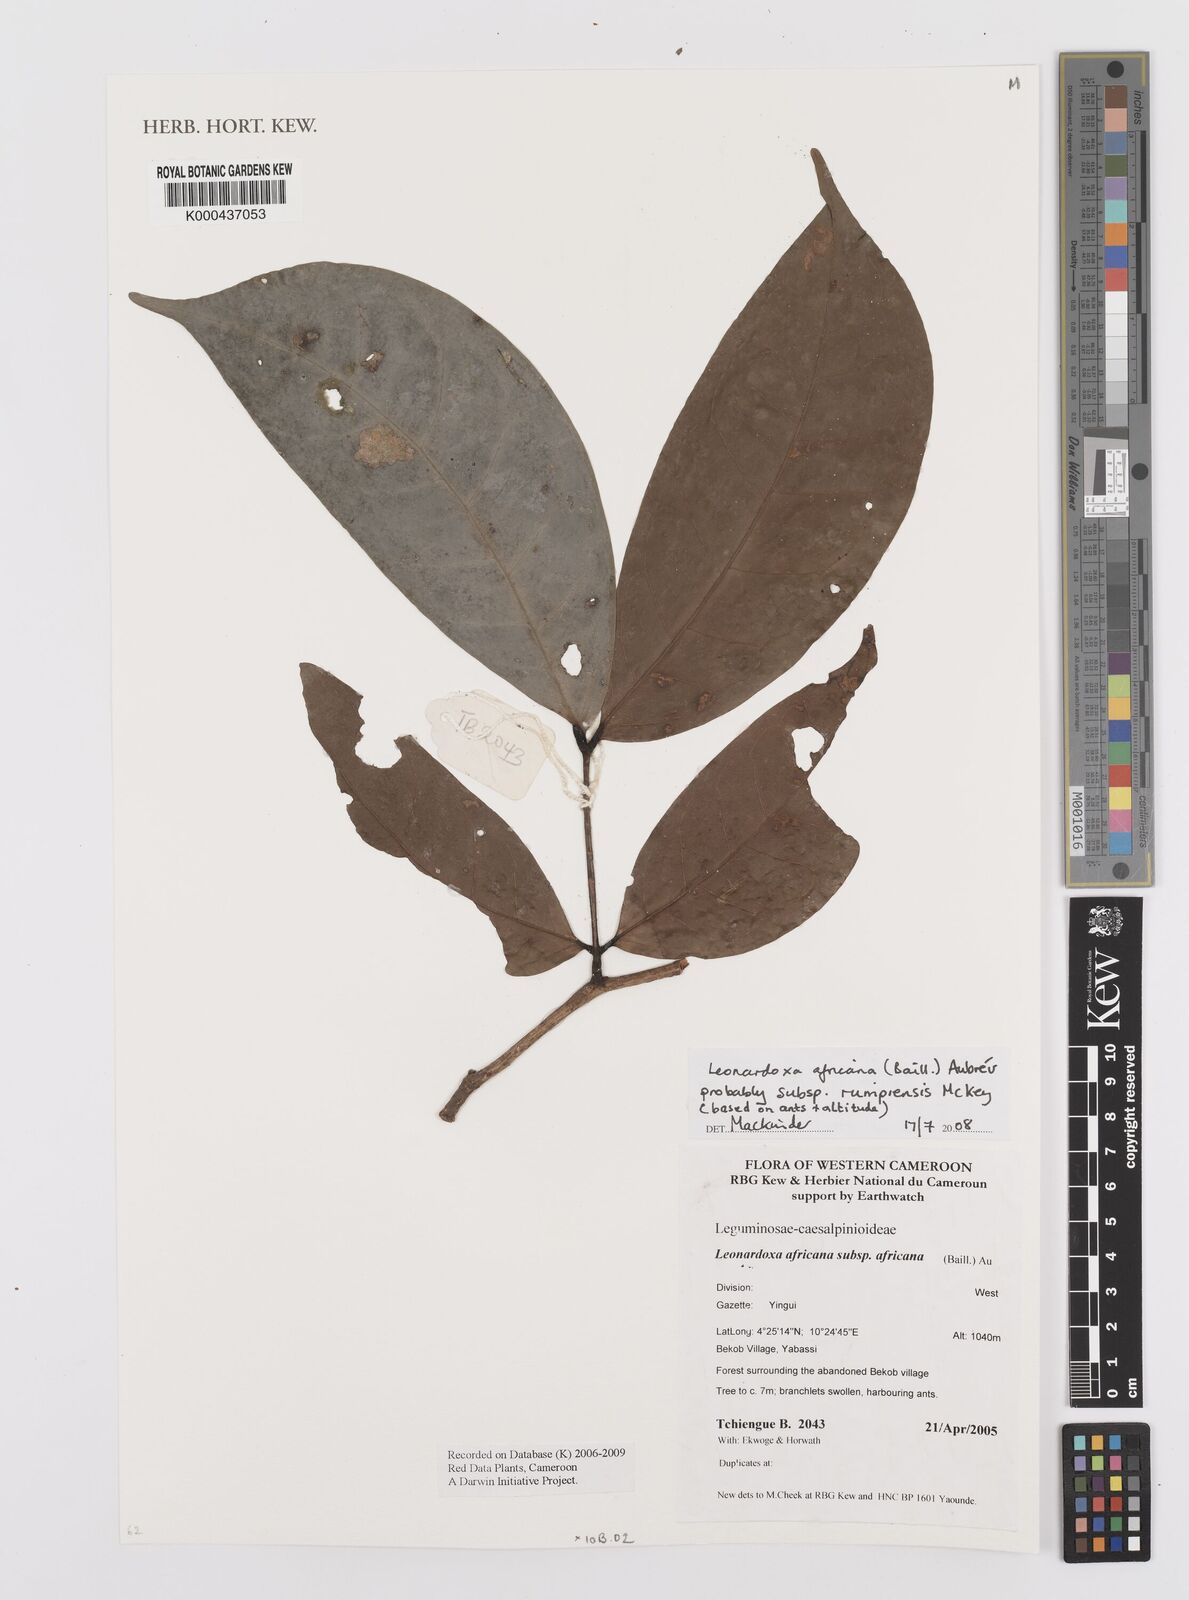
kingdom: Plantae
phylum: Tracheophyta
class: Magnoliopsida
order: Fabales
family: Fabaceae
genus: Leonardoxa
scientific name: Leonardoxa africana
